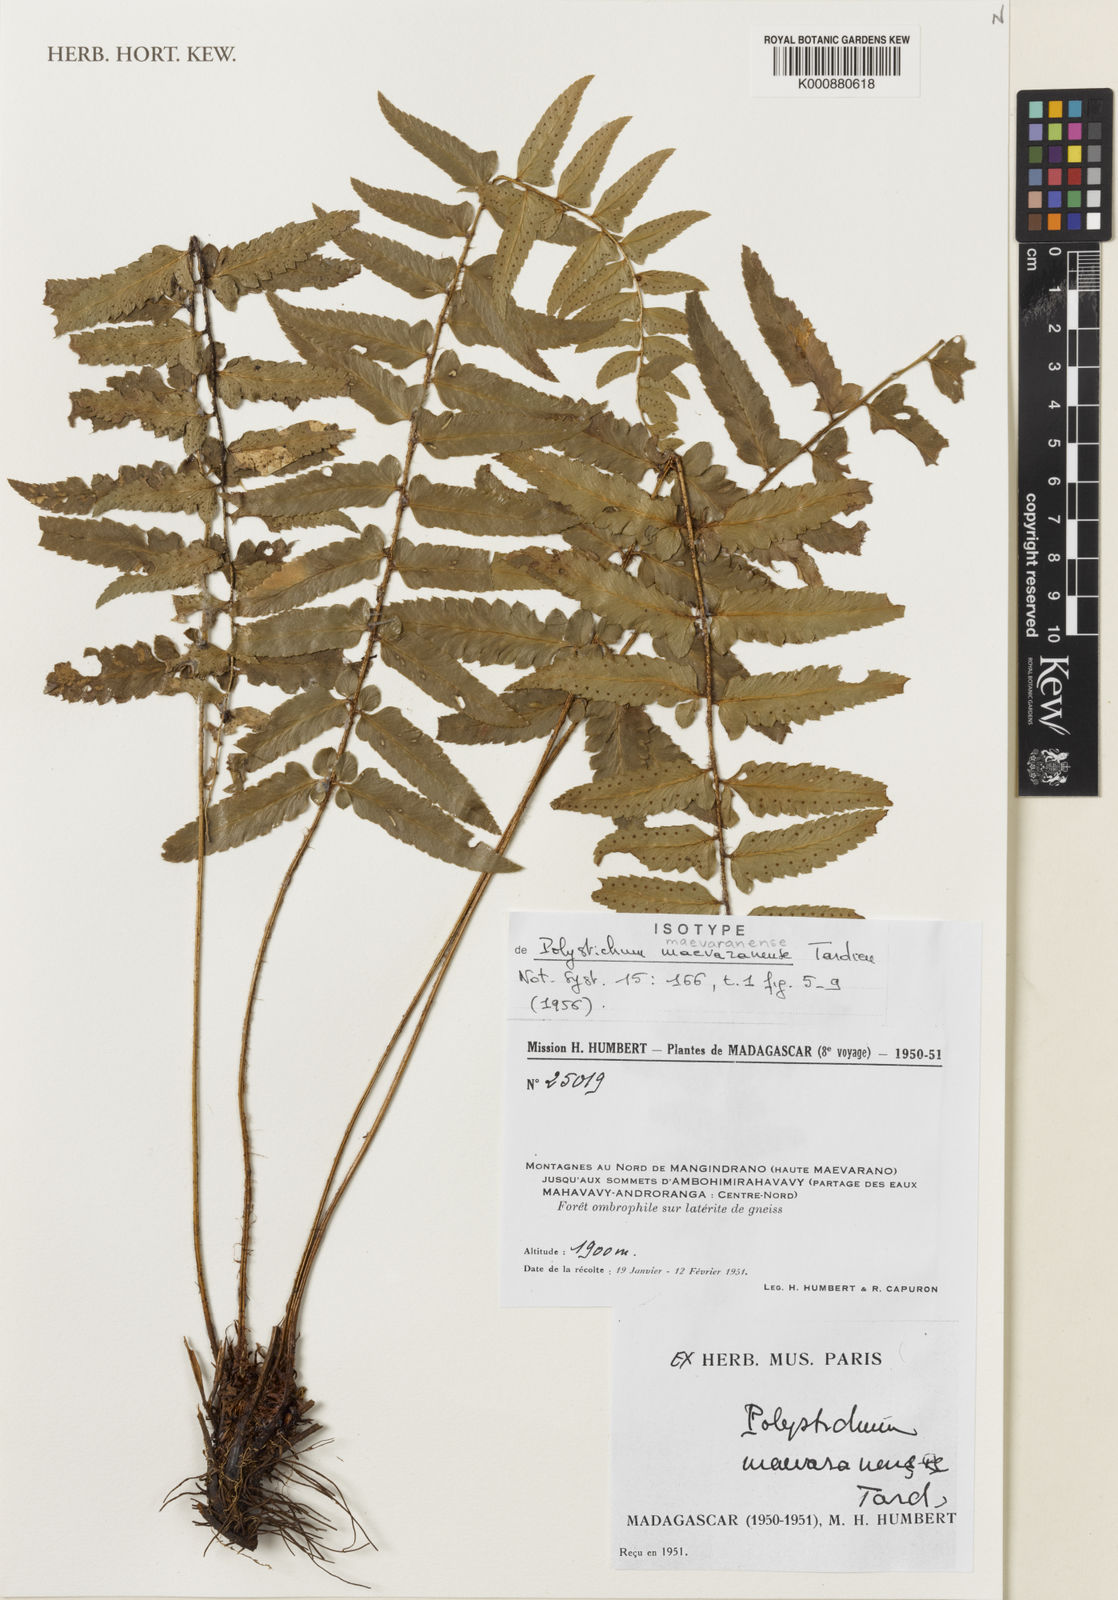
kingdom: Plantae
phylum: Tracheophyta
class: Polypodiopsida
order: Polypodiales
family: Dryopteridaceae
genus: Polystichum
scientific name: Polystichum maevaranense
